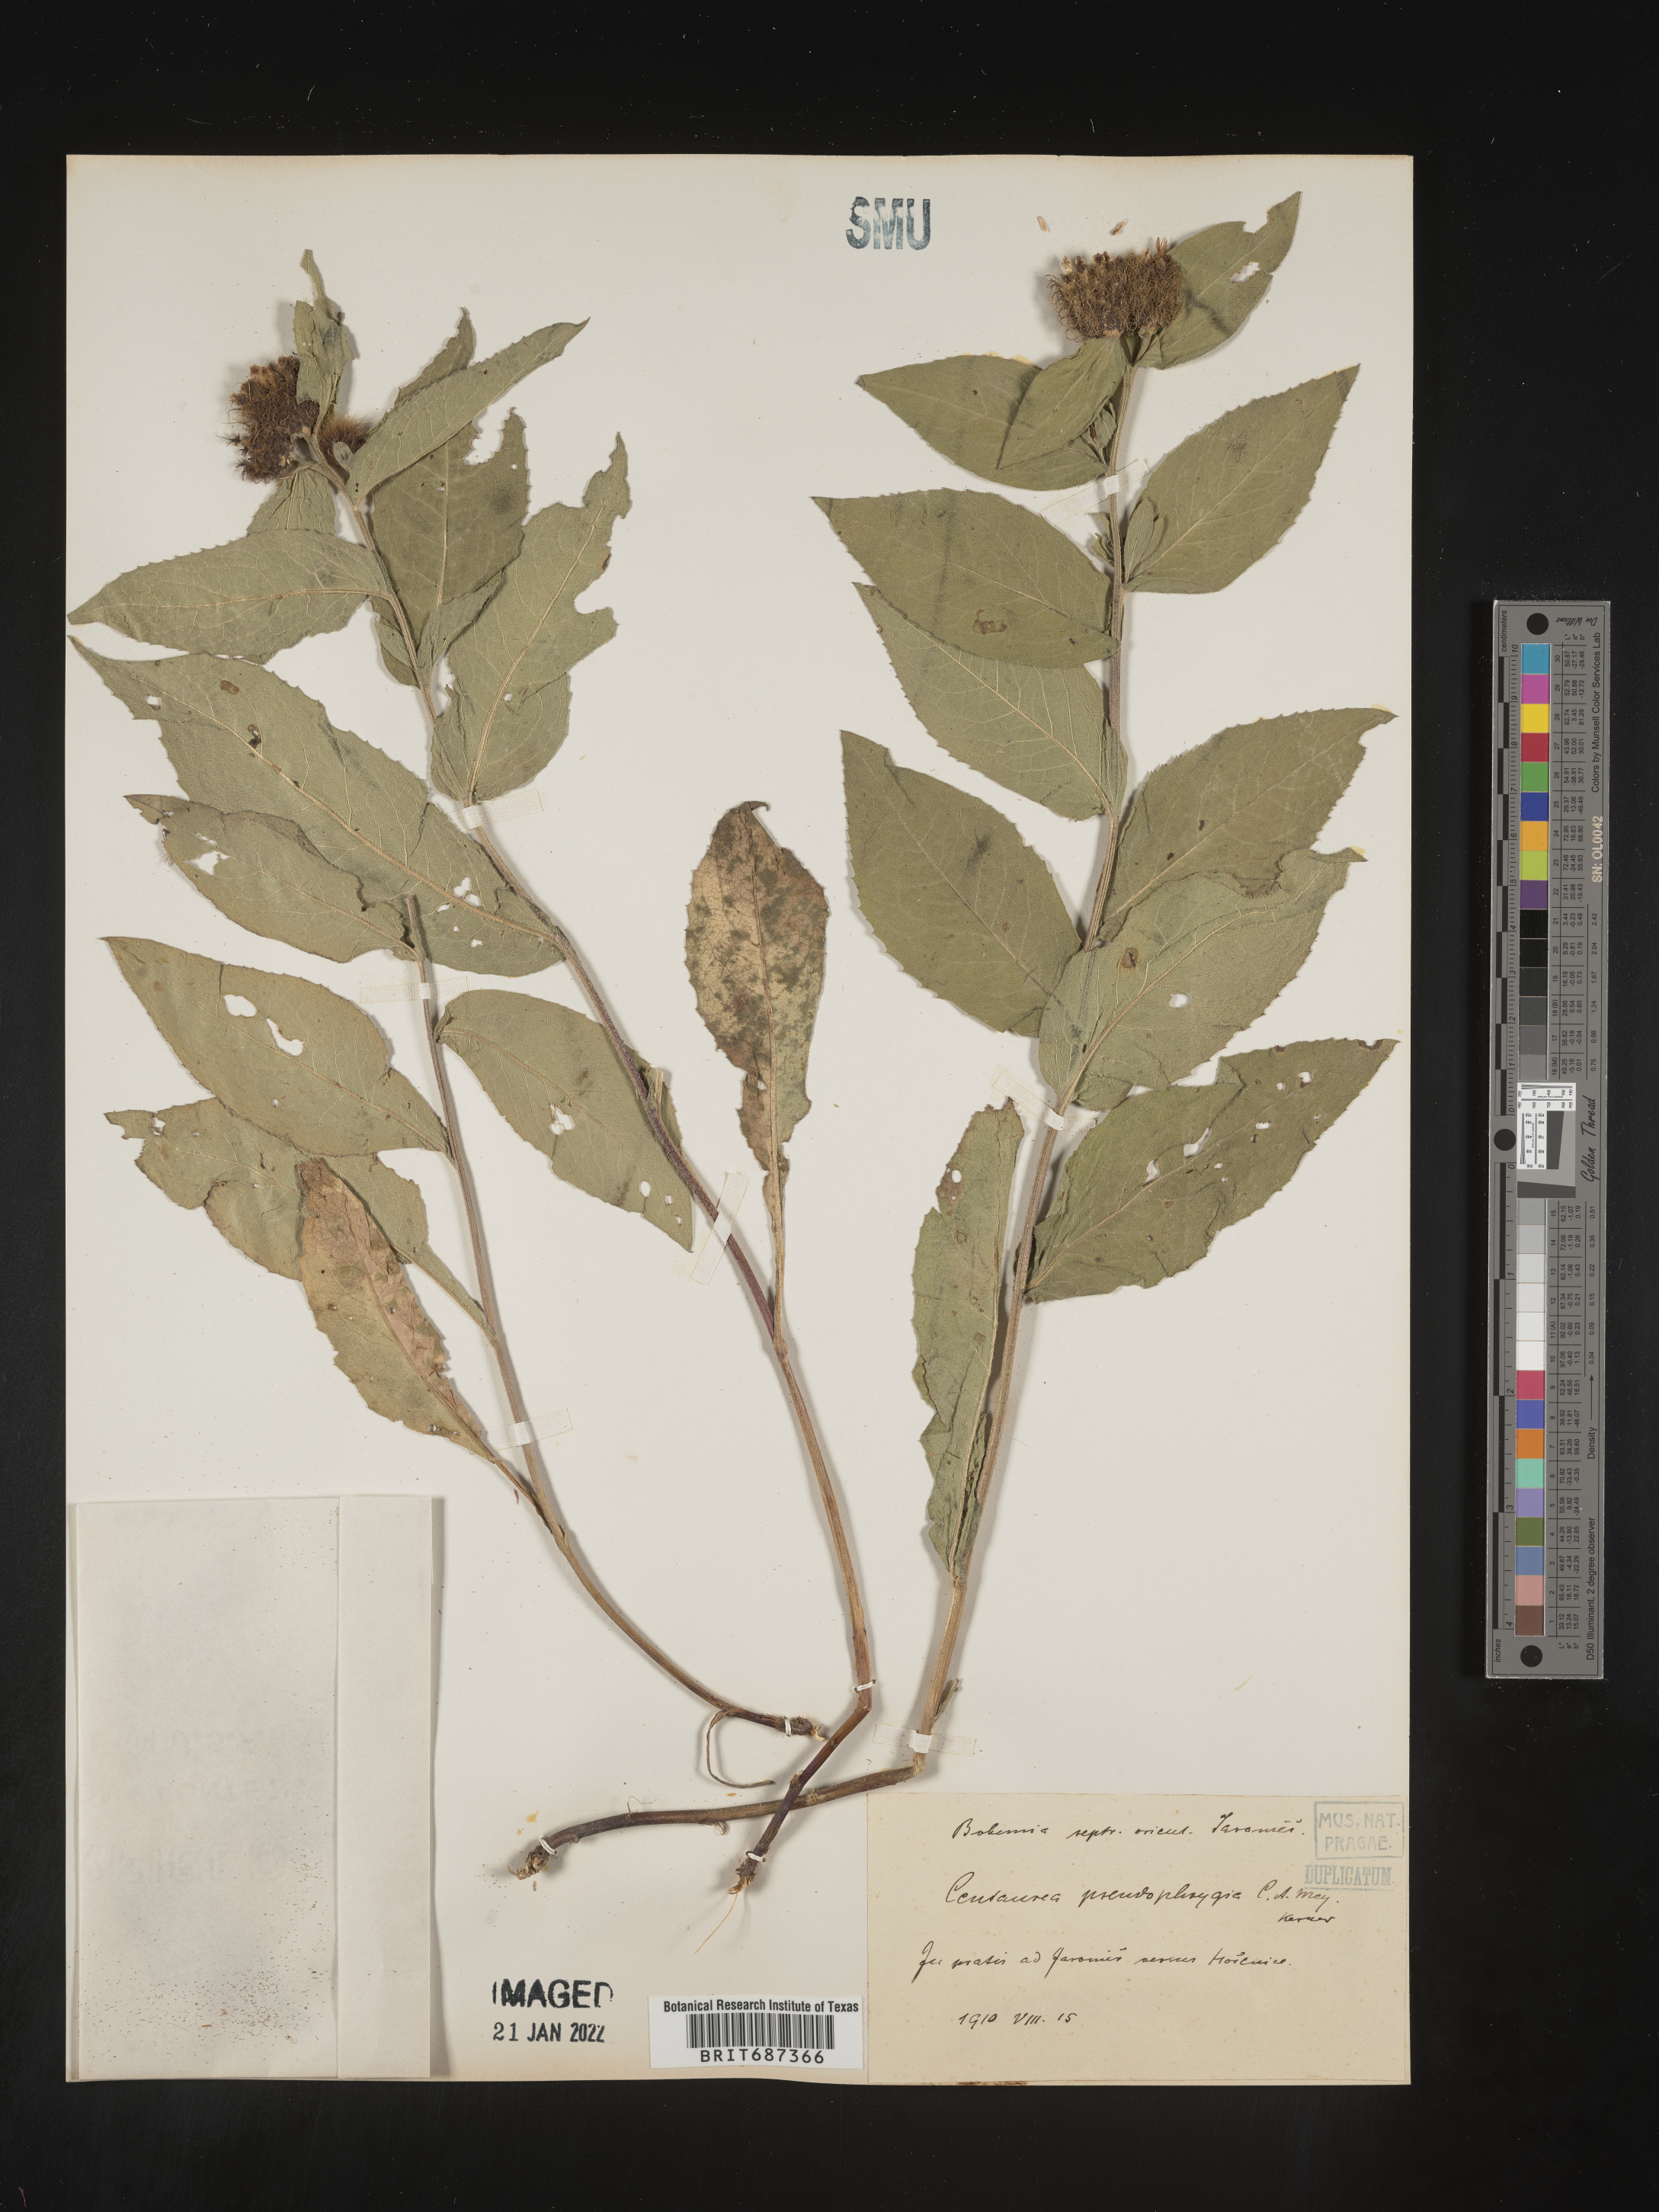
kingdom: Plantae
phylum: Tracheophyta
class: Magnoliopsida
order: Asterales
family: Asteraceae
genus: Centaurea
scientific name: Centaurea
